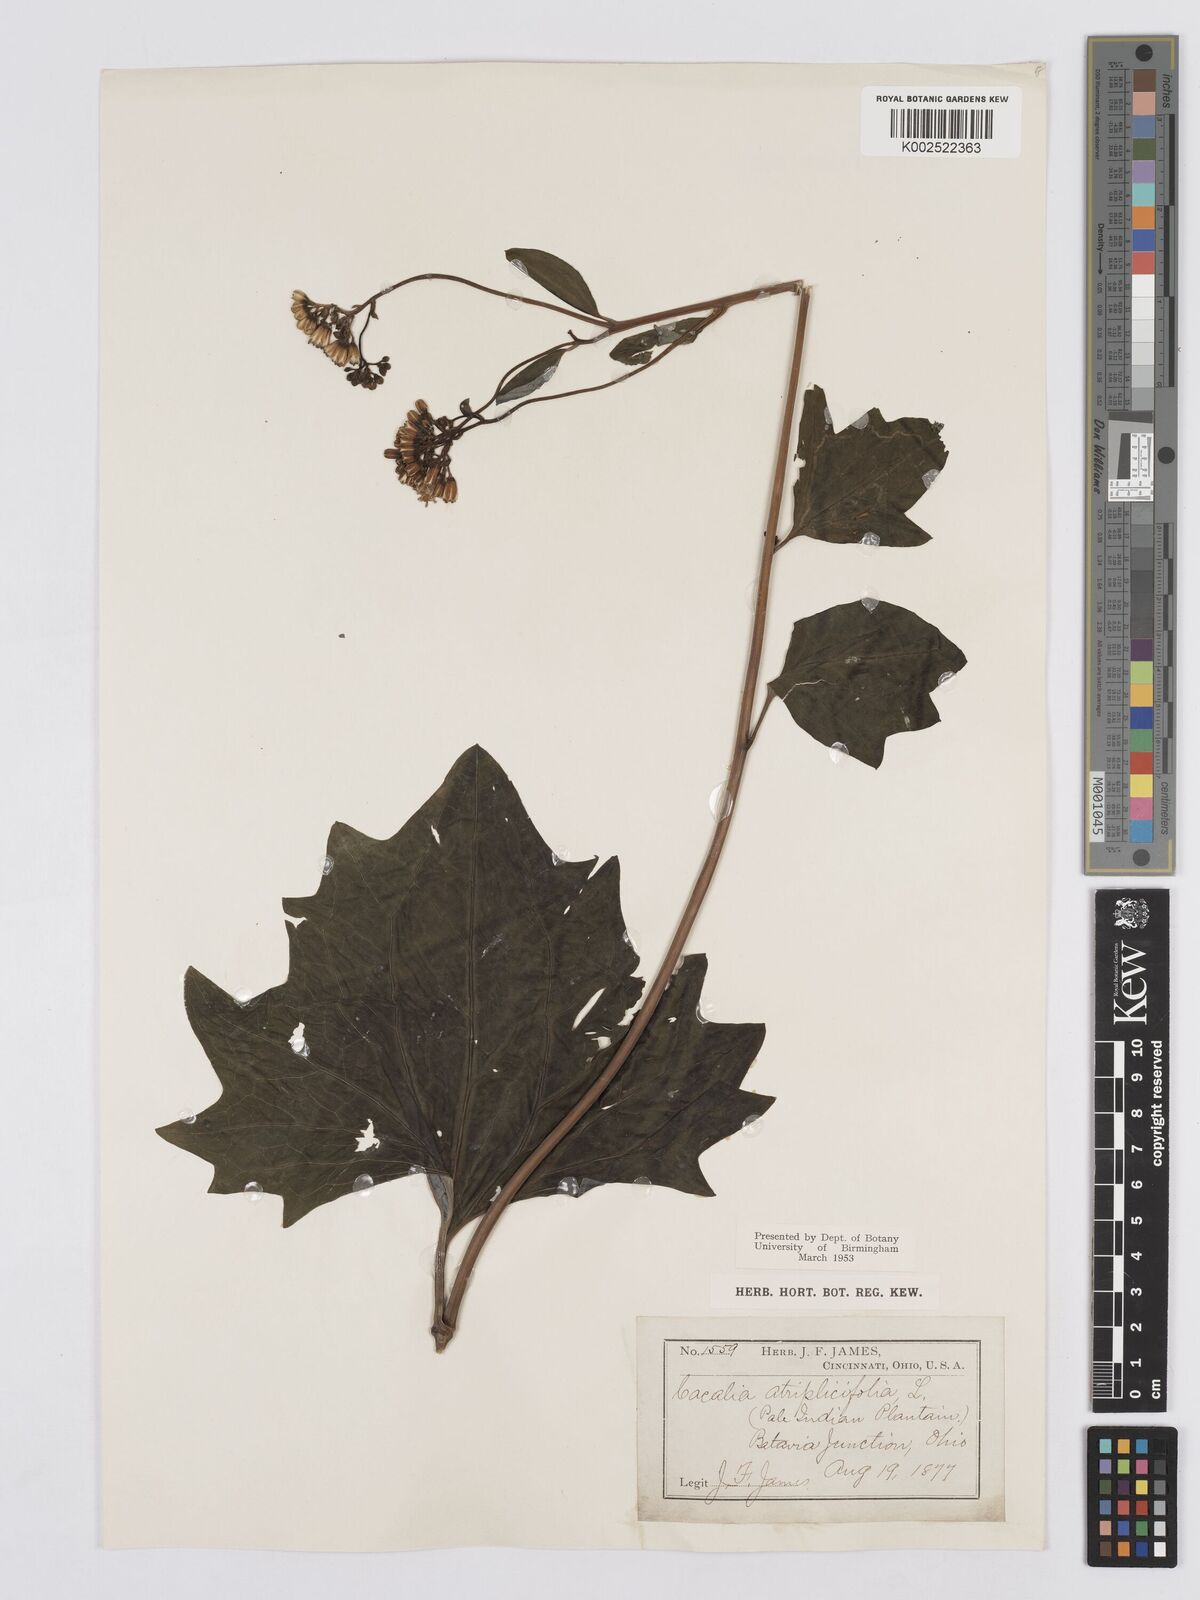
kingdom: Plantae
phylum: Tracheophyta
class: Magnoliopsida
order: Asterales
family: Asteraceae
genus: Arnoglossum
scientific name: Arnoglossum atriplicifolium
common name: Pale indian-plantain
